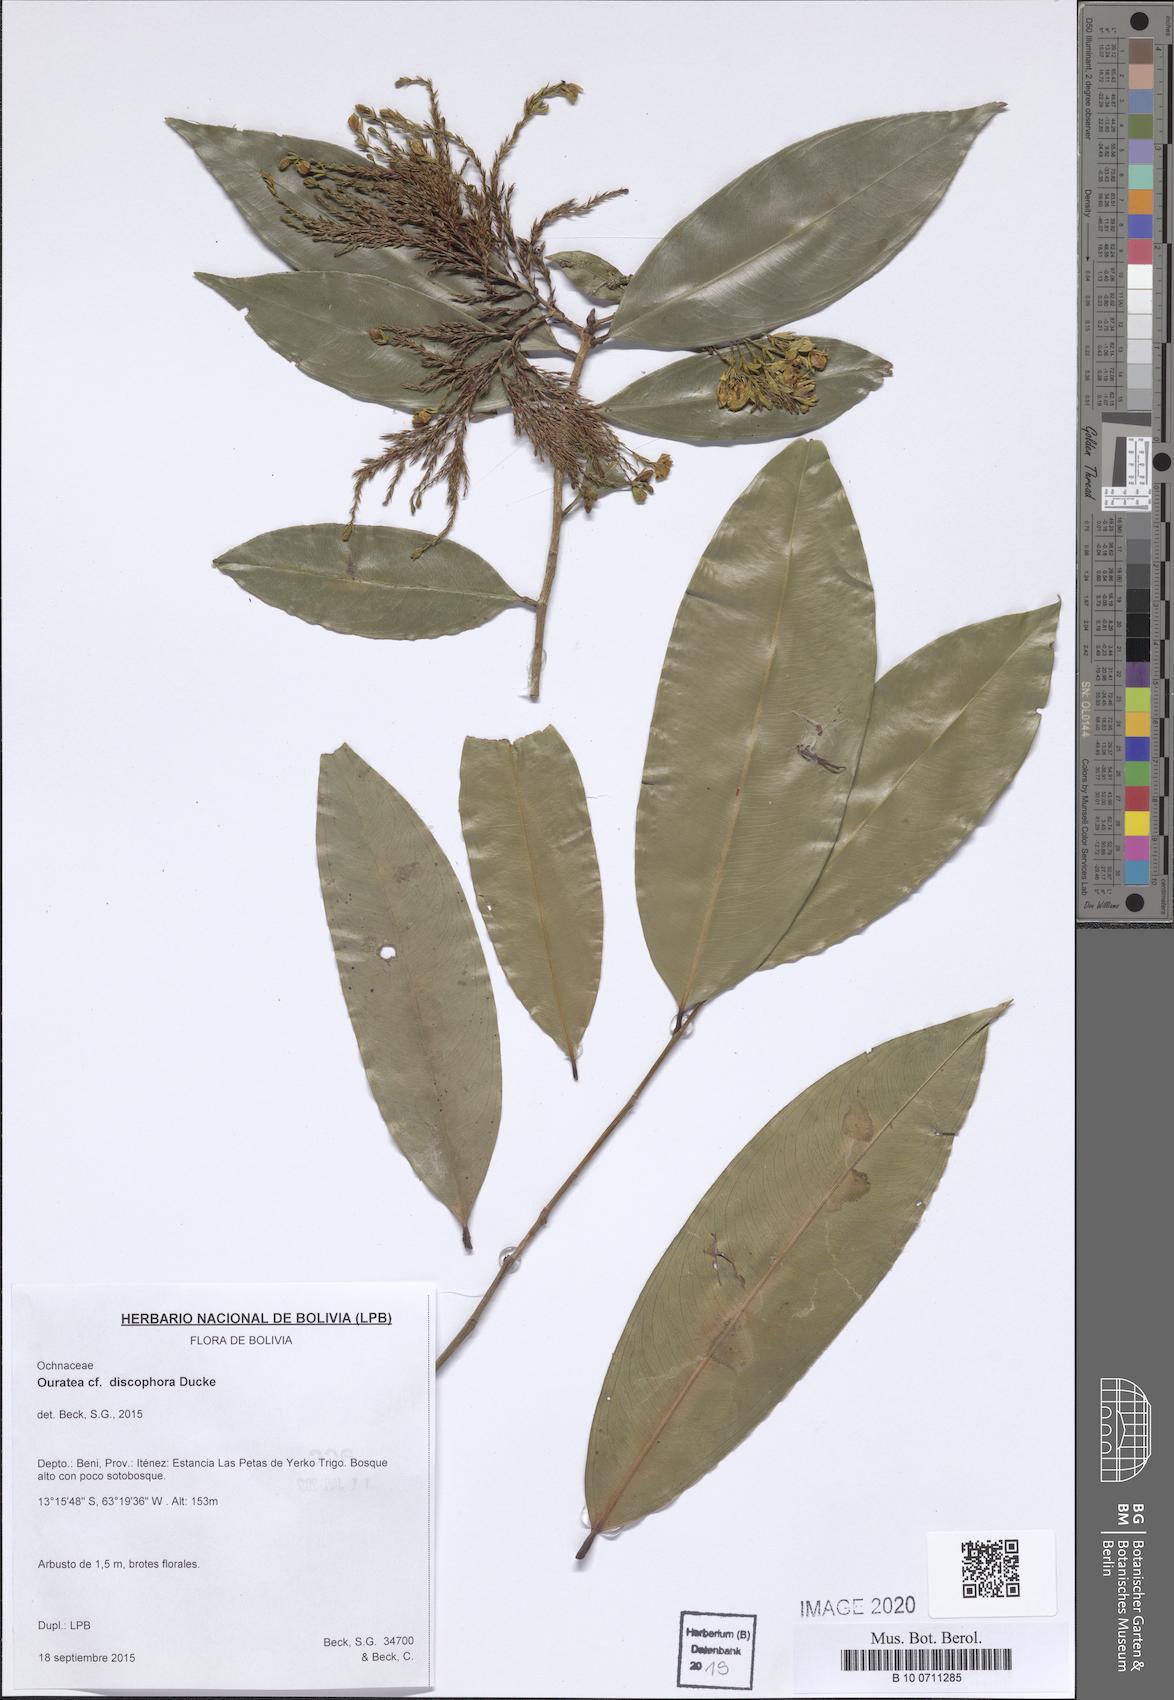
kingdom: Plantae
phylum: Tracheophyta
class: Magnoliopsida
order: Malpighiales
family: Ochnaceae
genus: Ouratea
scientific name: Ouratea discophora
